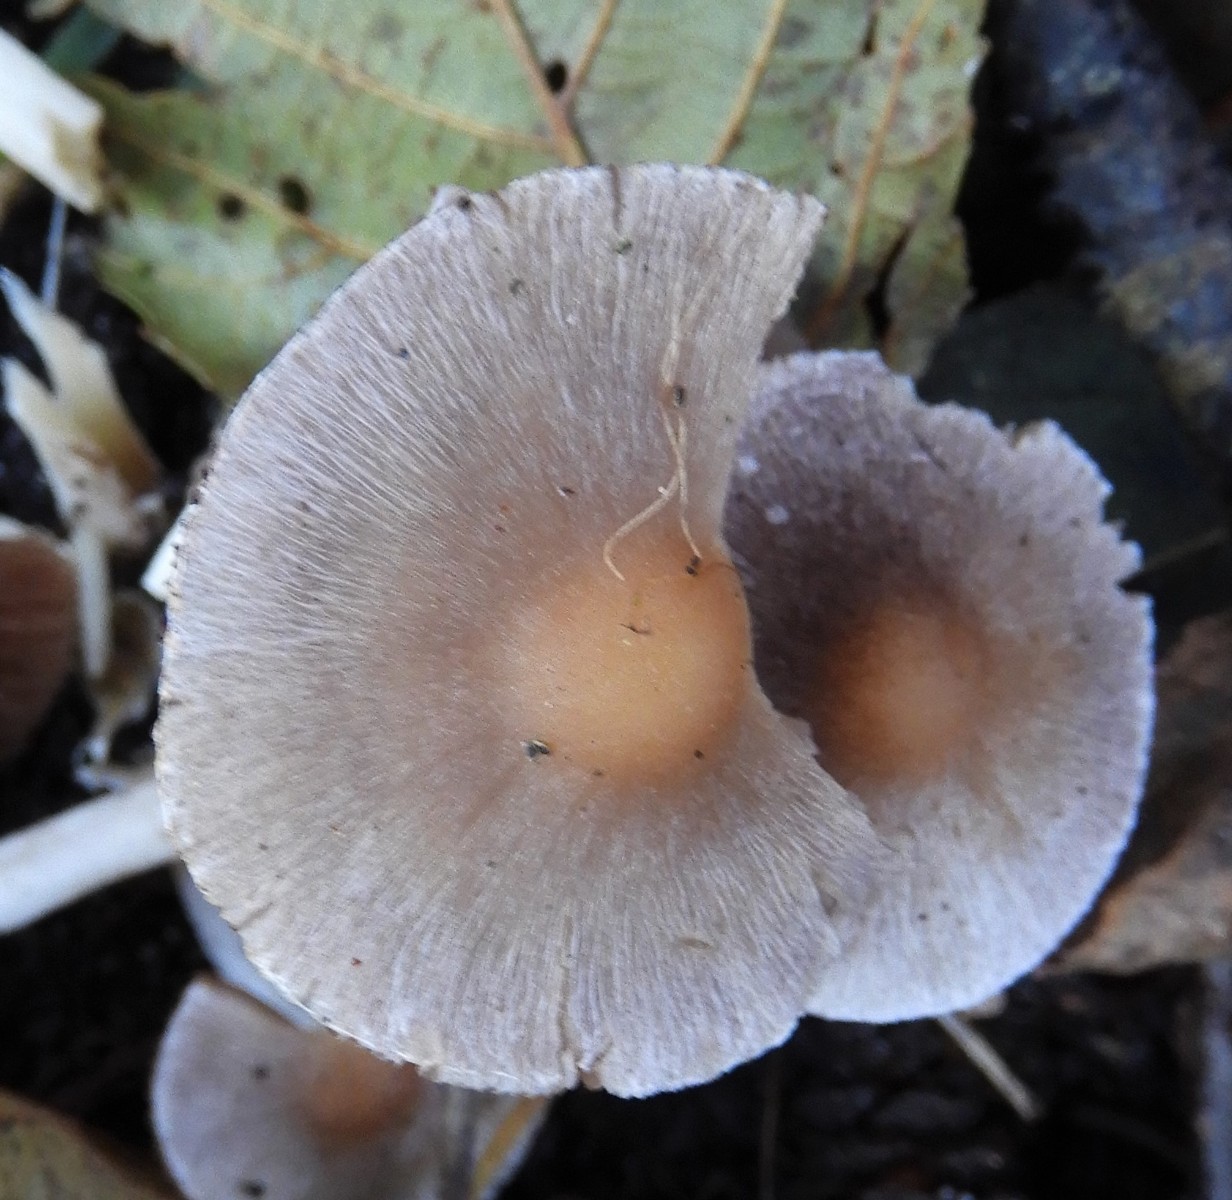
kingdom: Fungi
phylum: Basidiomycota
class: Agaricomycetes
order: Agaricales
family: Psathyrellaceae
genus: Psathyrella
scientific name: Psathyrella
